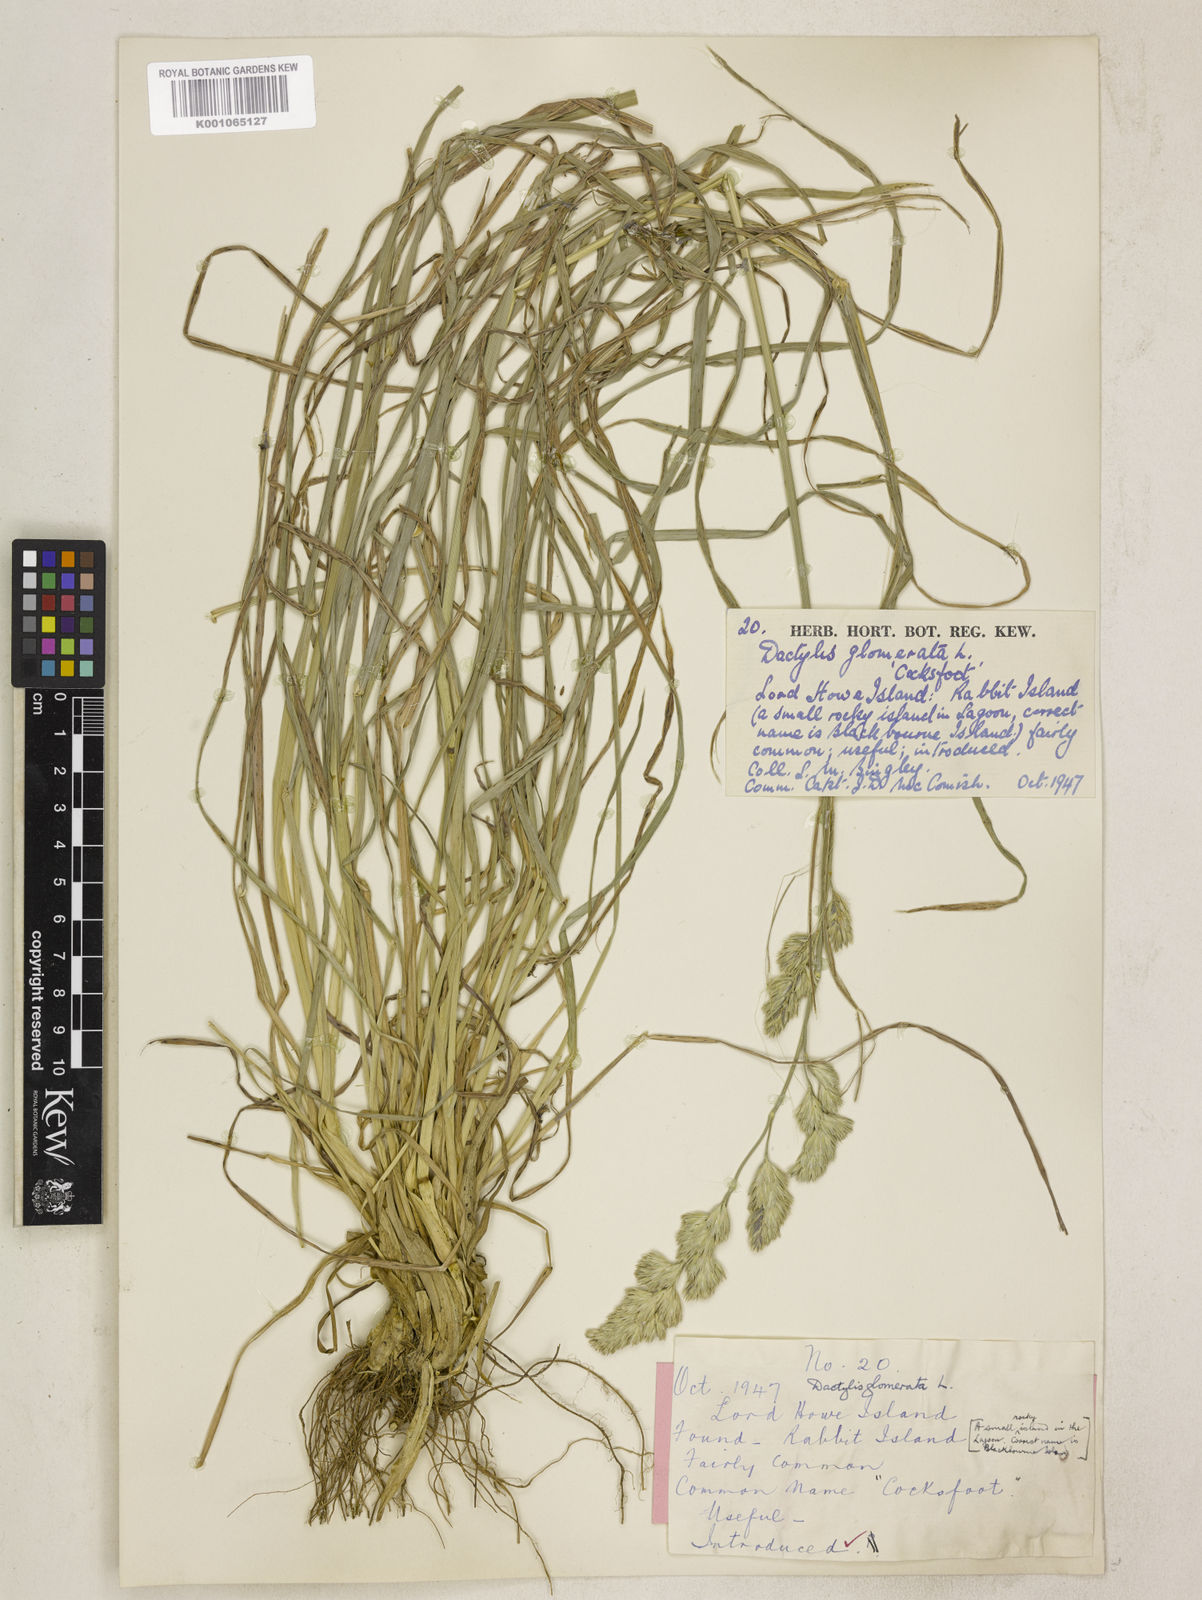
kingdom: Plantae
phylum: Tracheophyta
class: Liliopsida
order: Poales
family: Poaceae
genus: Dactylis
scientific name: Dactylis glomerata
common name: Orchardgrass
